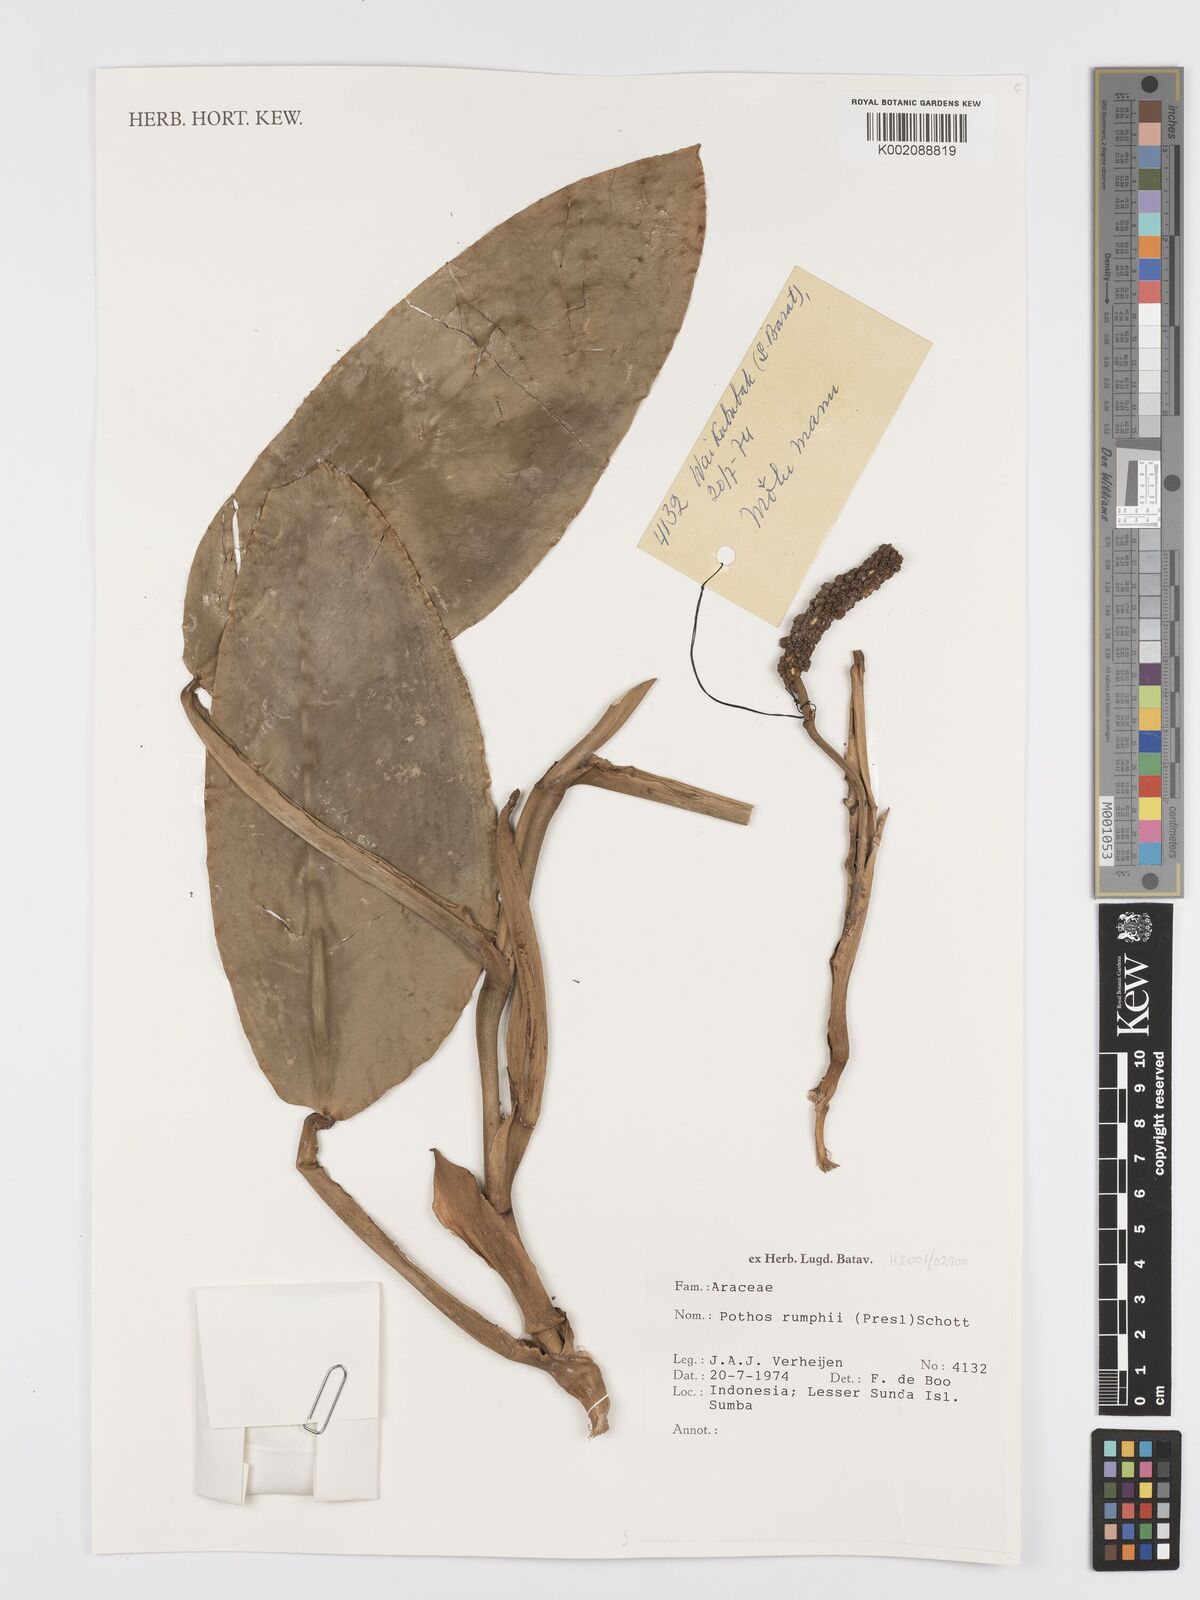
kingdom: Plantae
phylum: Tracheophyta
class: Liliopsida
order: Alismatales
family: Araceae
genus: Pothos
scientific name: Pothos tener
